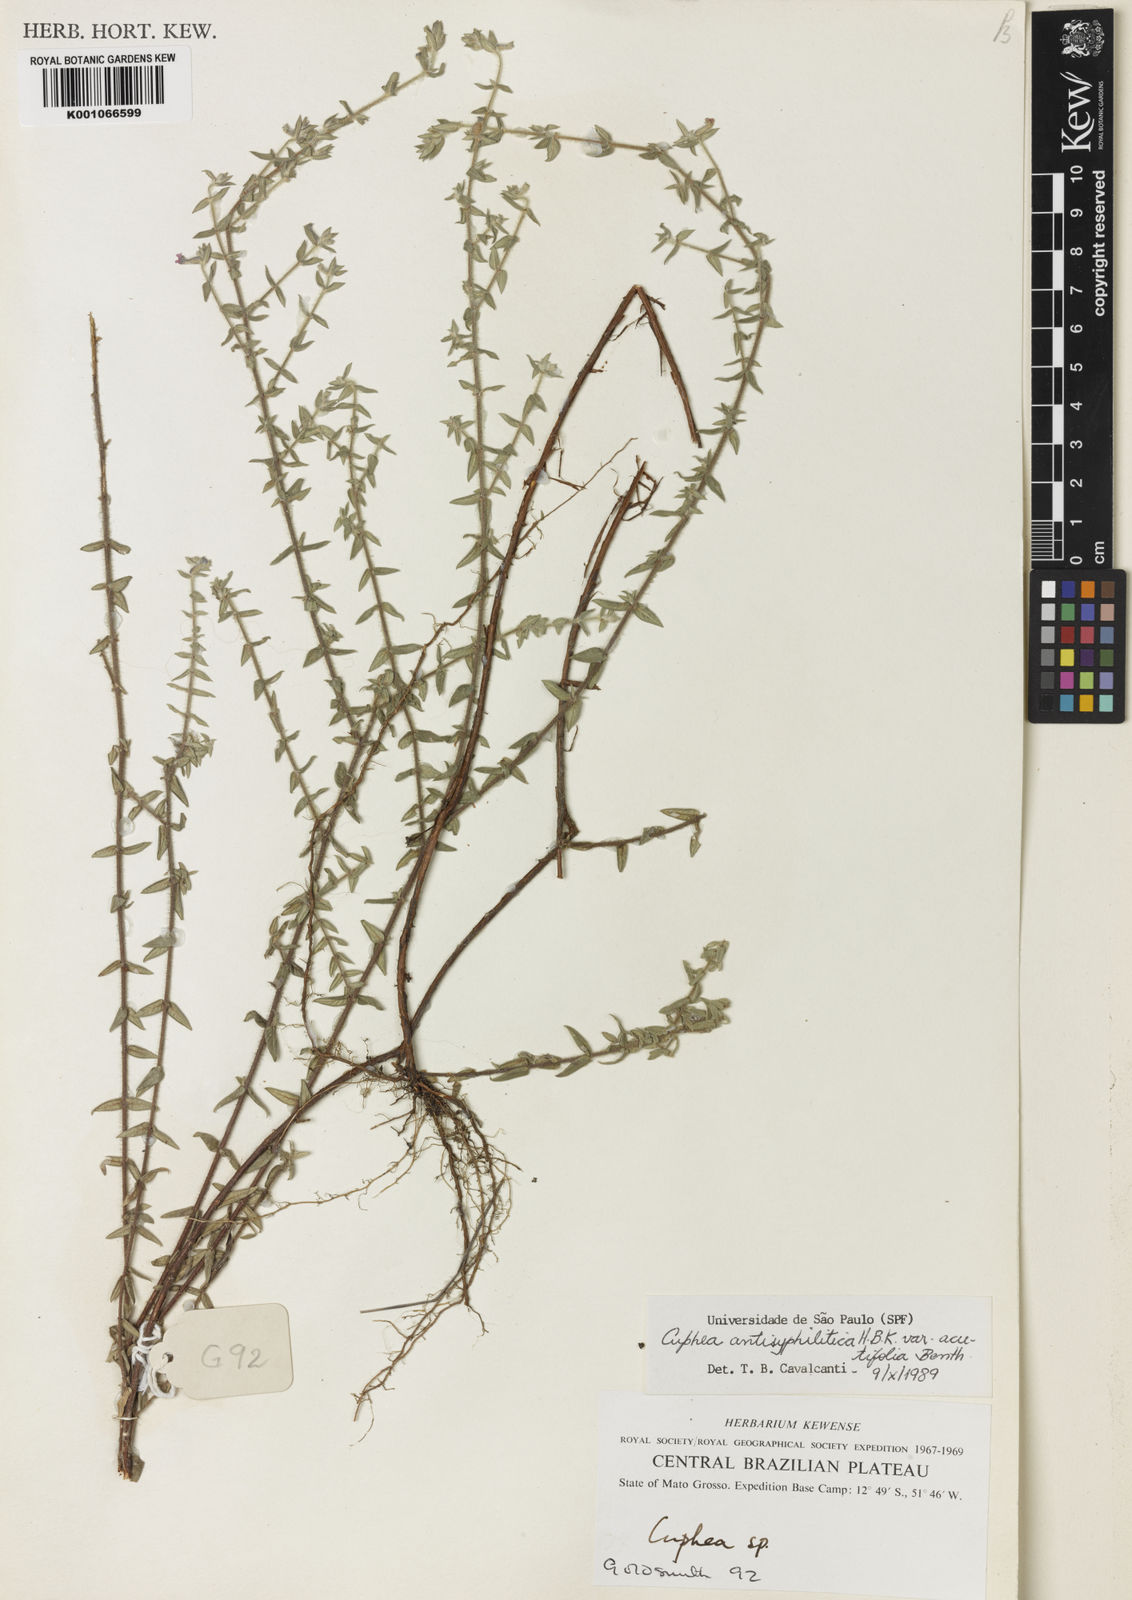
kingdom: Plantae
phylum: Tracheophyta
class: Magnoliopsida
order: Myrtales
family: Lythraceae
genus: Cuphea
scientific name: Cuphea antisyphilitica
